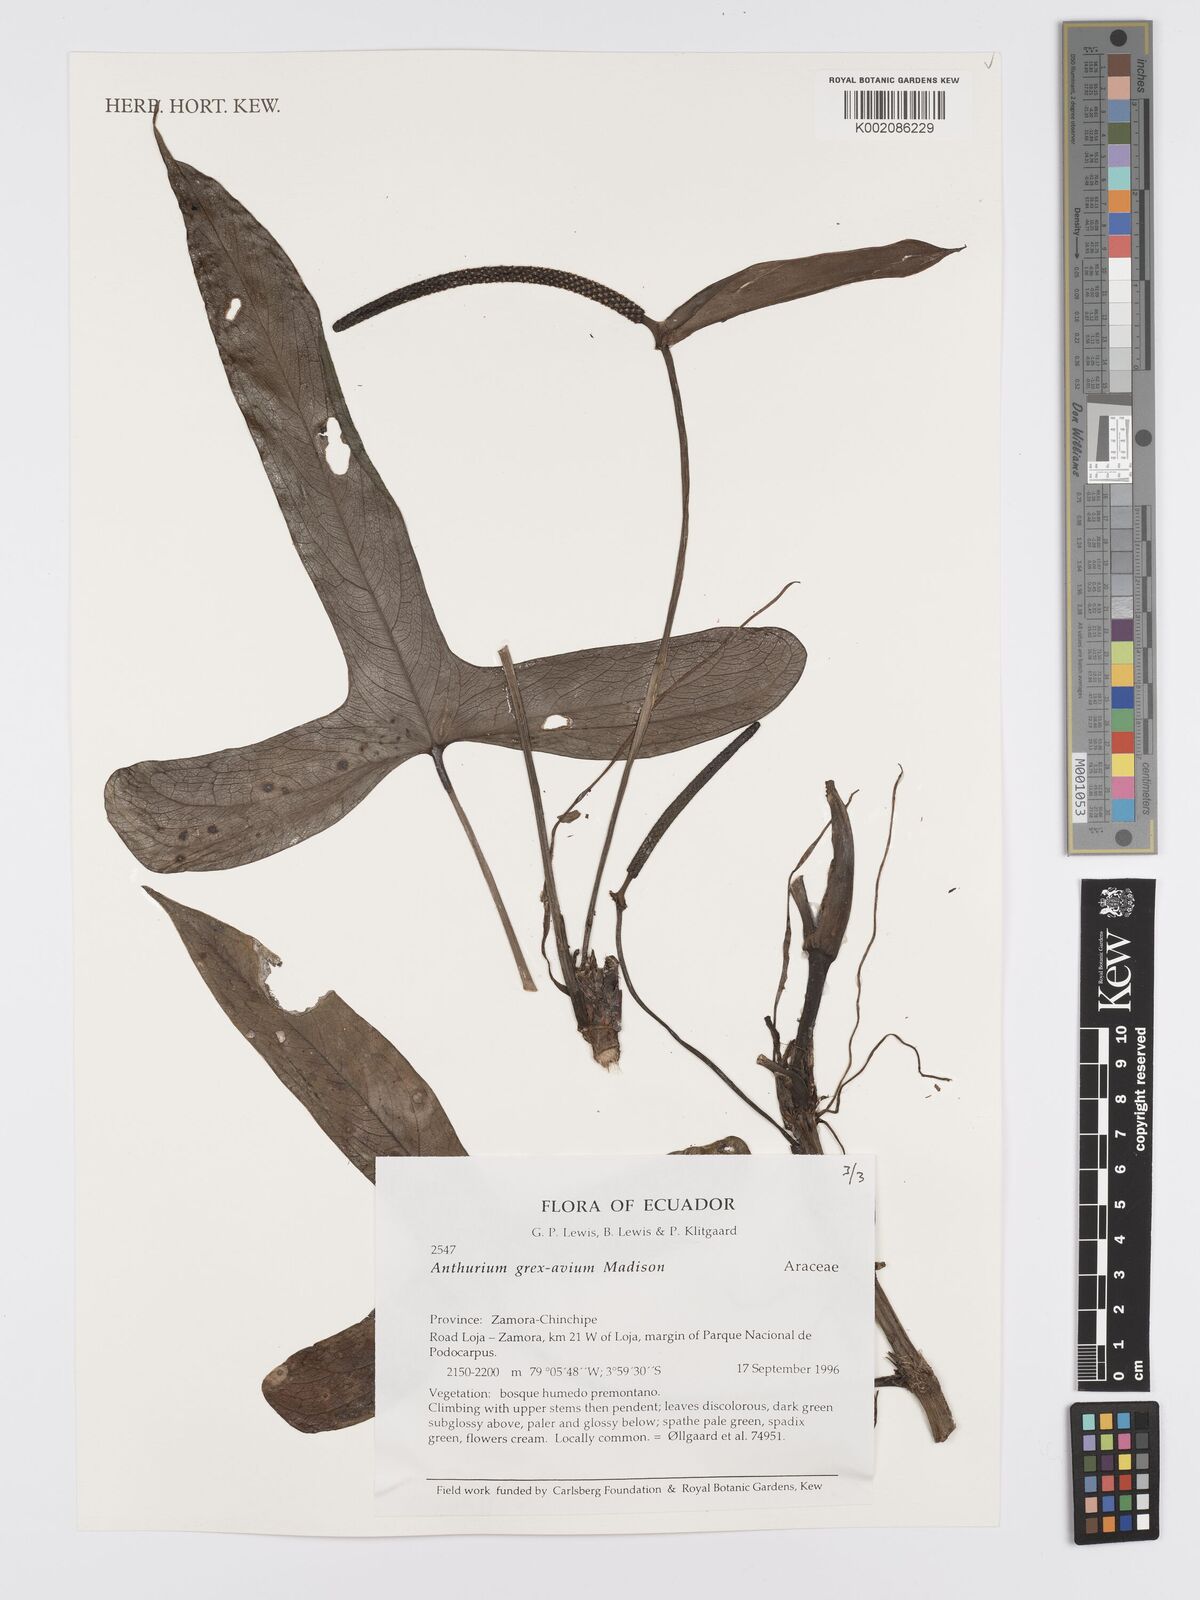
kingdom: Plantae
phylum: Tracheophyta
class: Liliopsida
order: Alismatales
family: Araceae
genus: Anthurium
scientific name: Anthurium grex-avium
